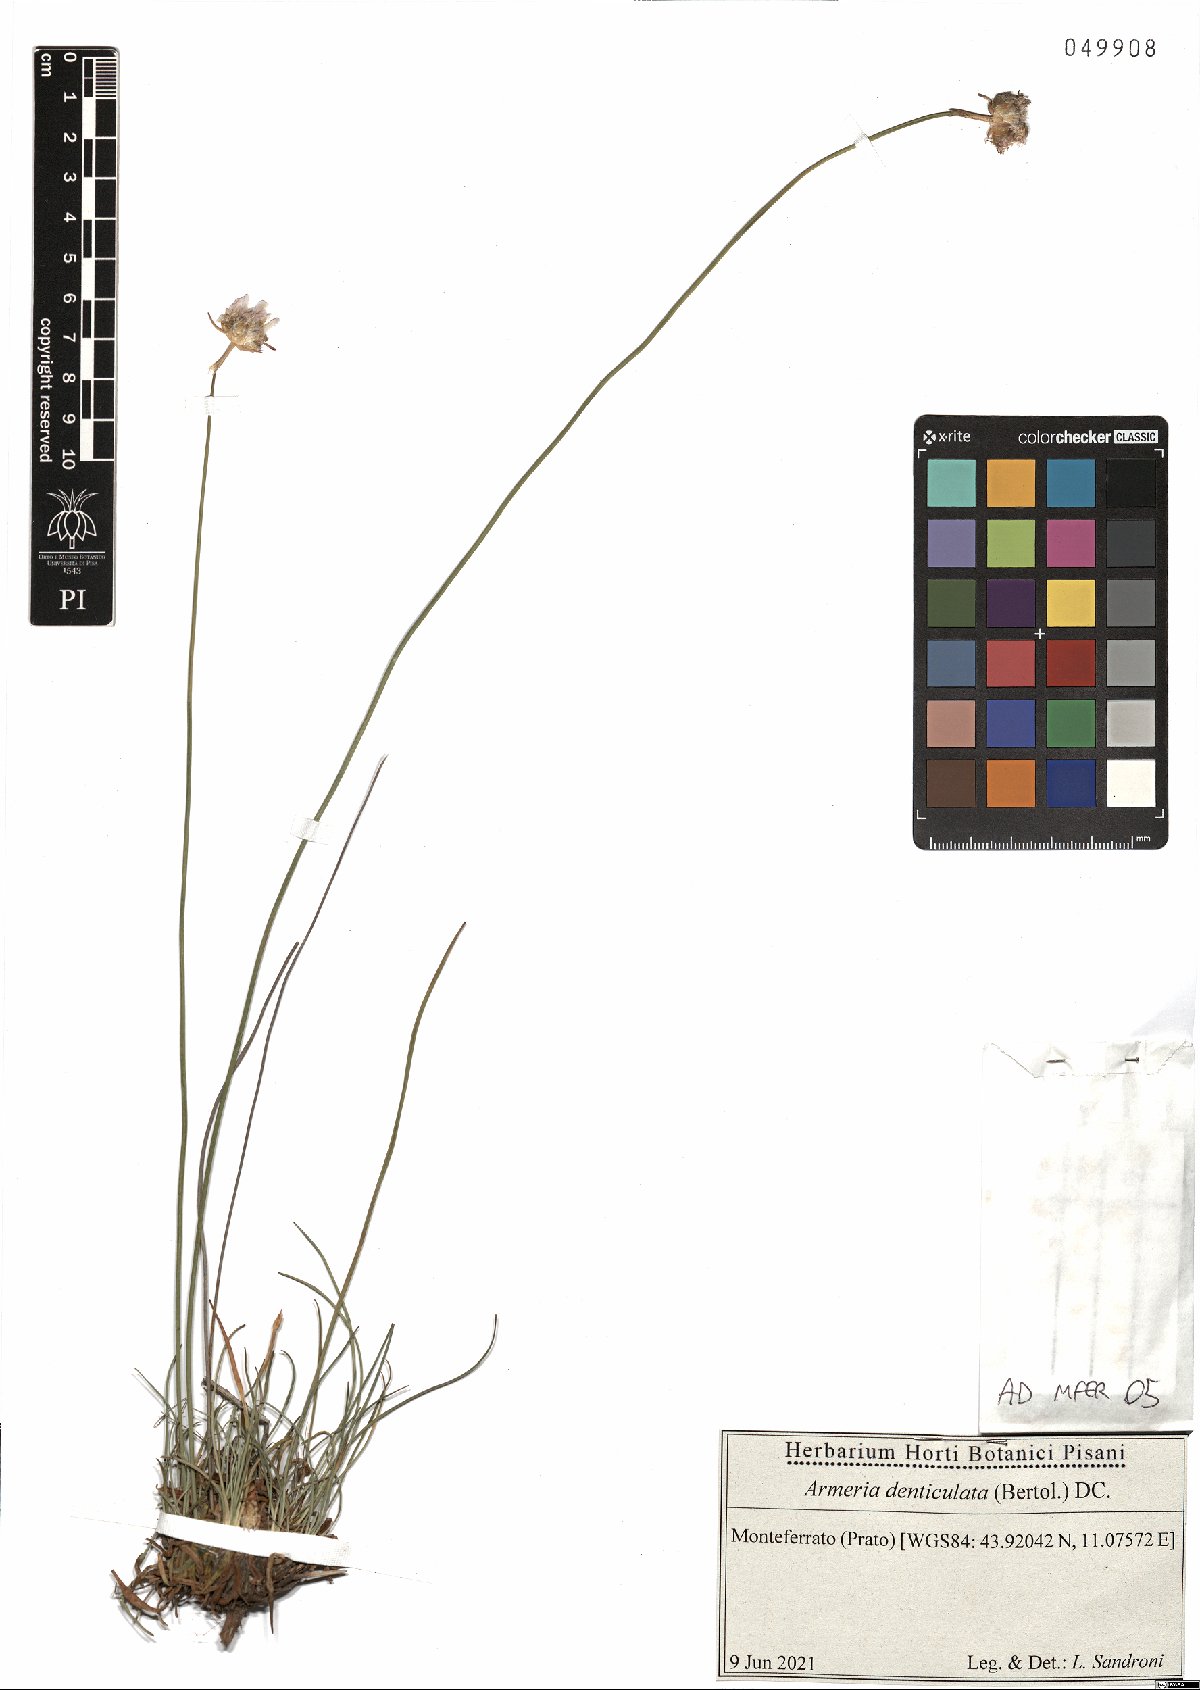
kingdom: Plantae
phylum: Tracheophyta
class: Magnoliopsida
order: Caryophyllales
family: Plumbaginaceae
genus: Armeria
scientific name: Armeria denticulata
